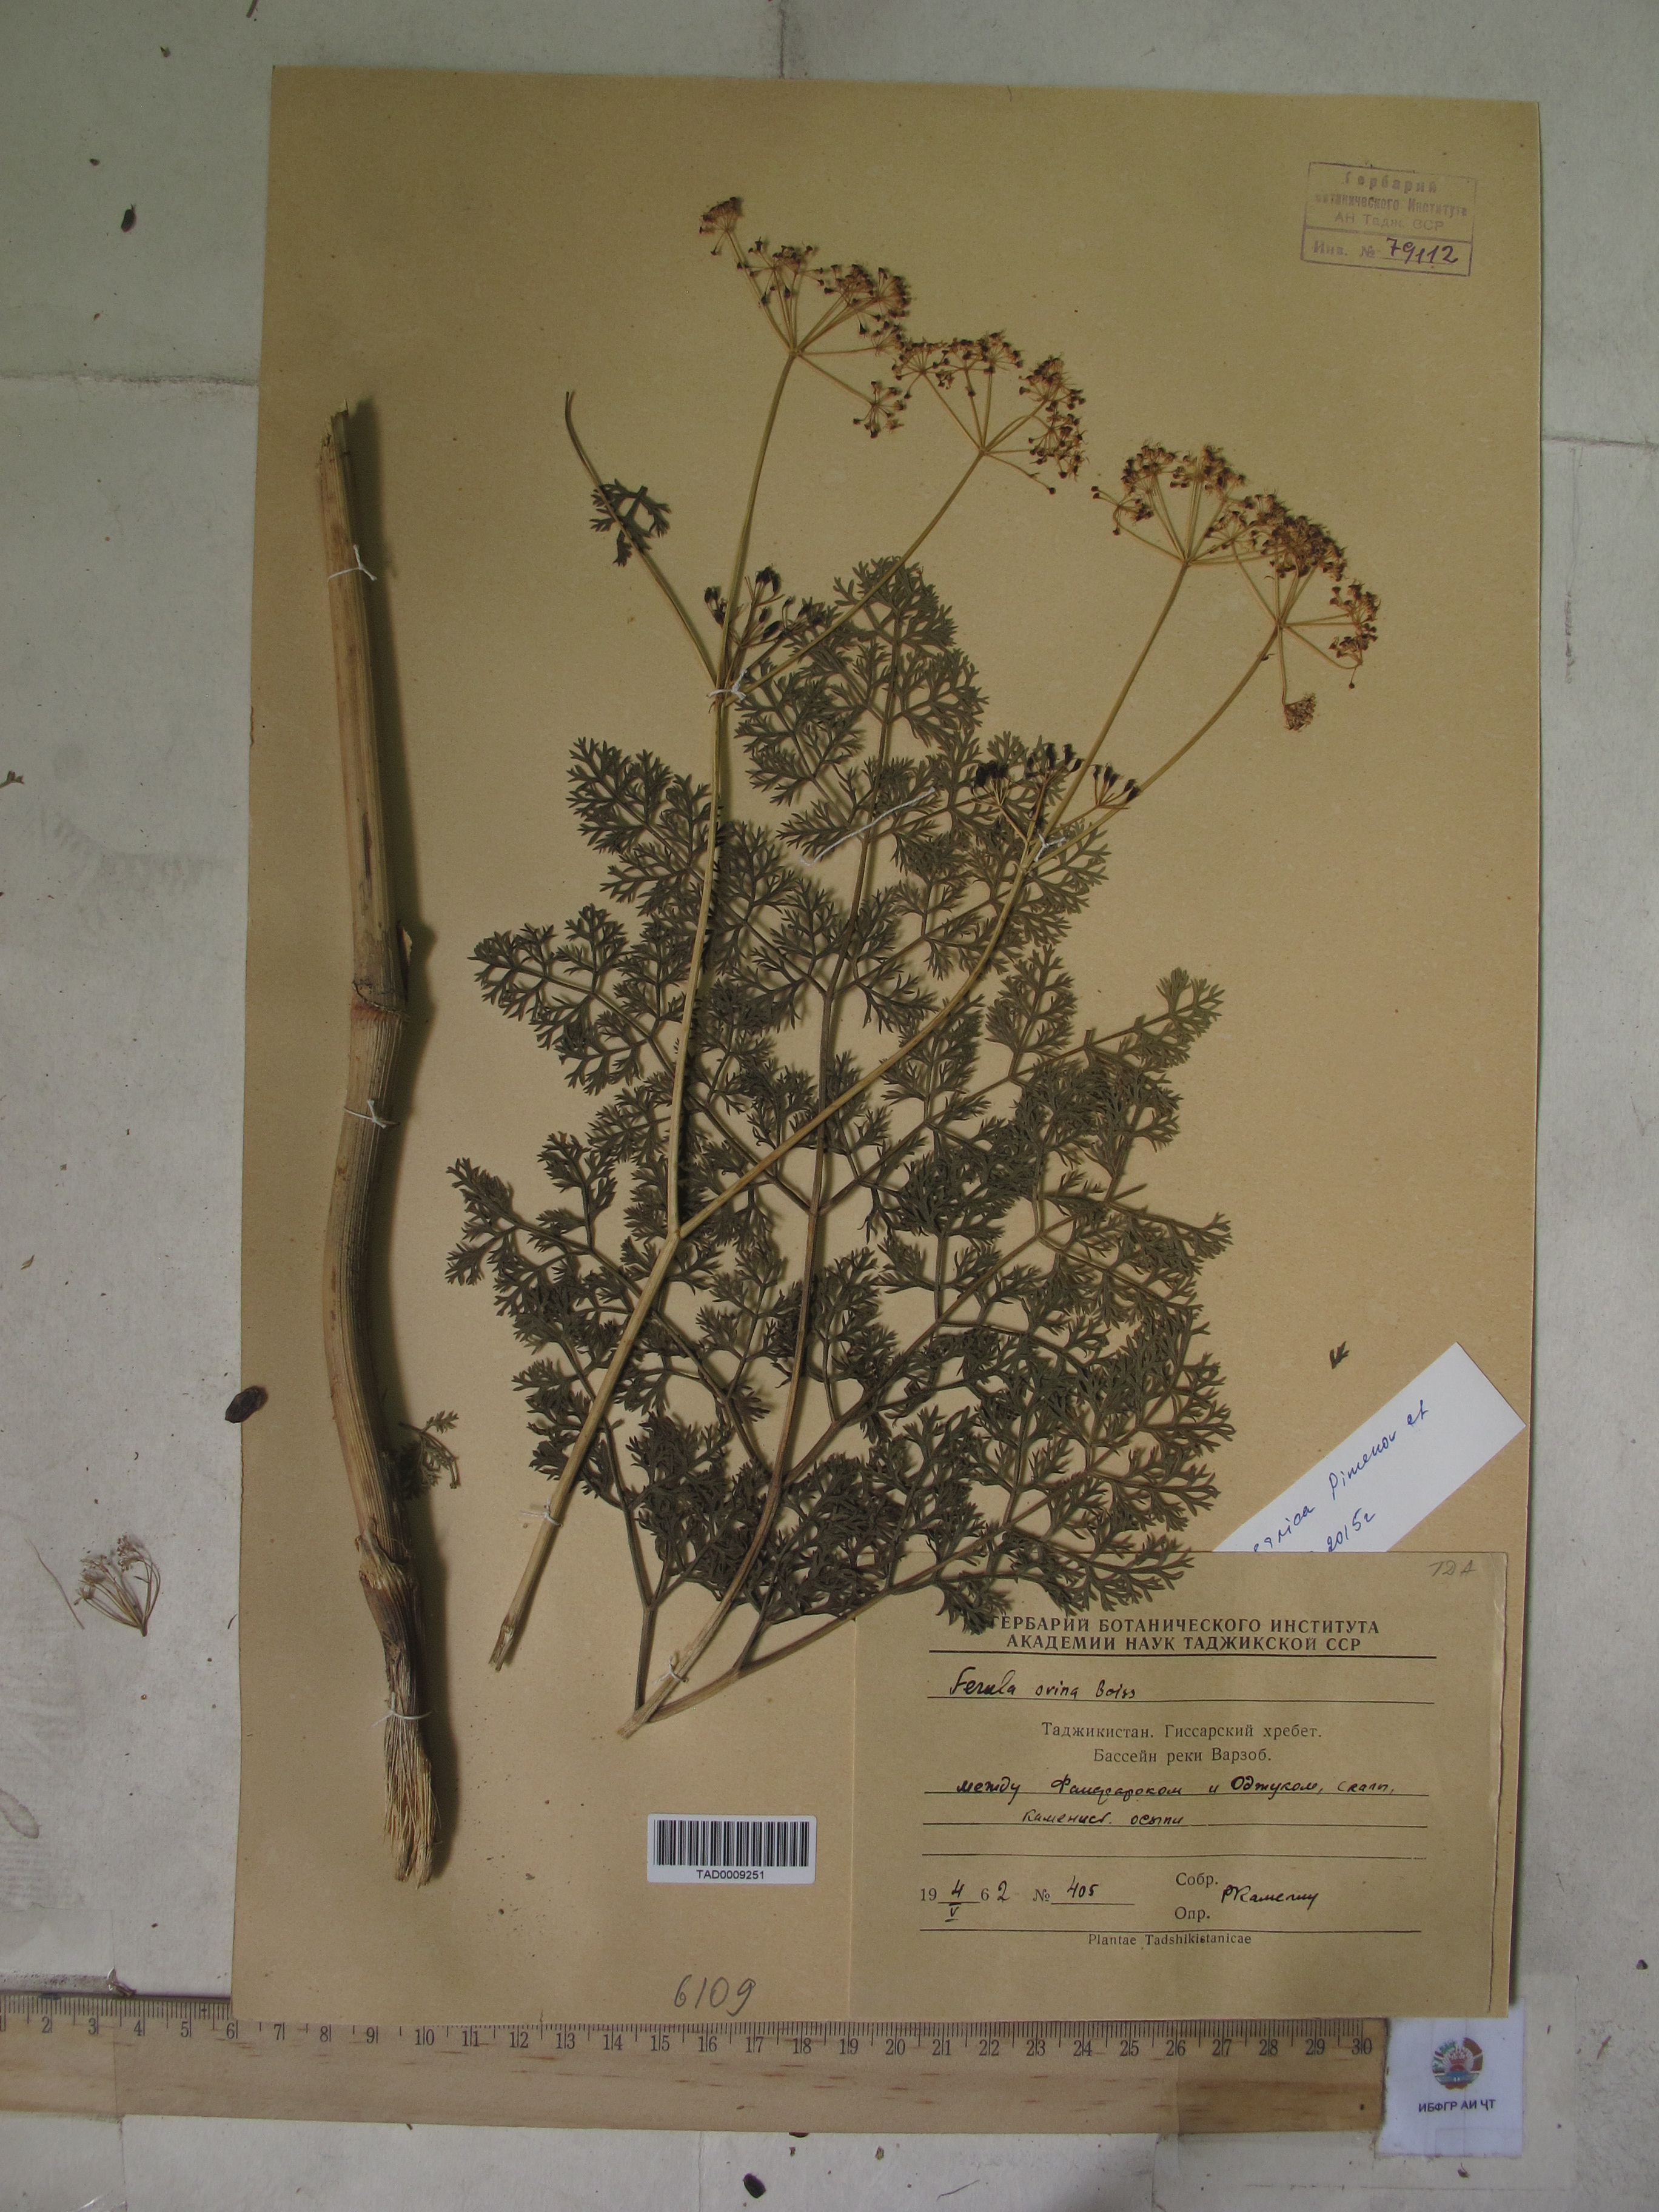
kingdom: Plantae
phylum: Tracheophyta
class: Magnoliopsida
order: Apiales
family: Apiaceae
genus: Ferula
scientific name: Ferula
